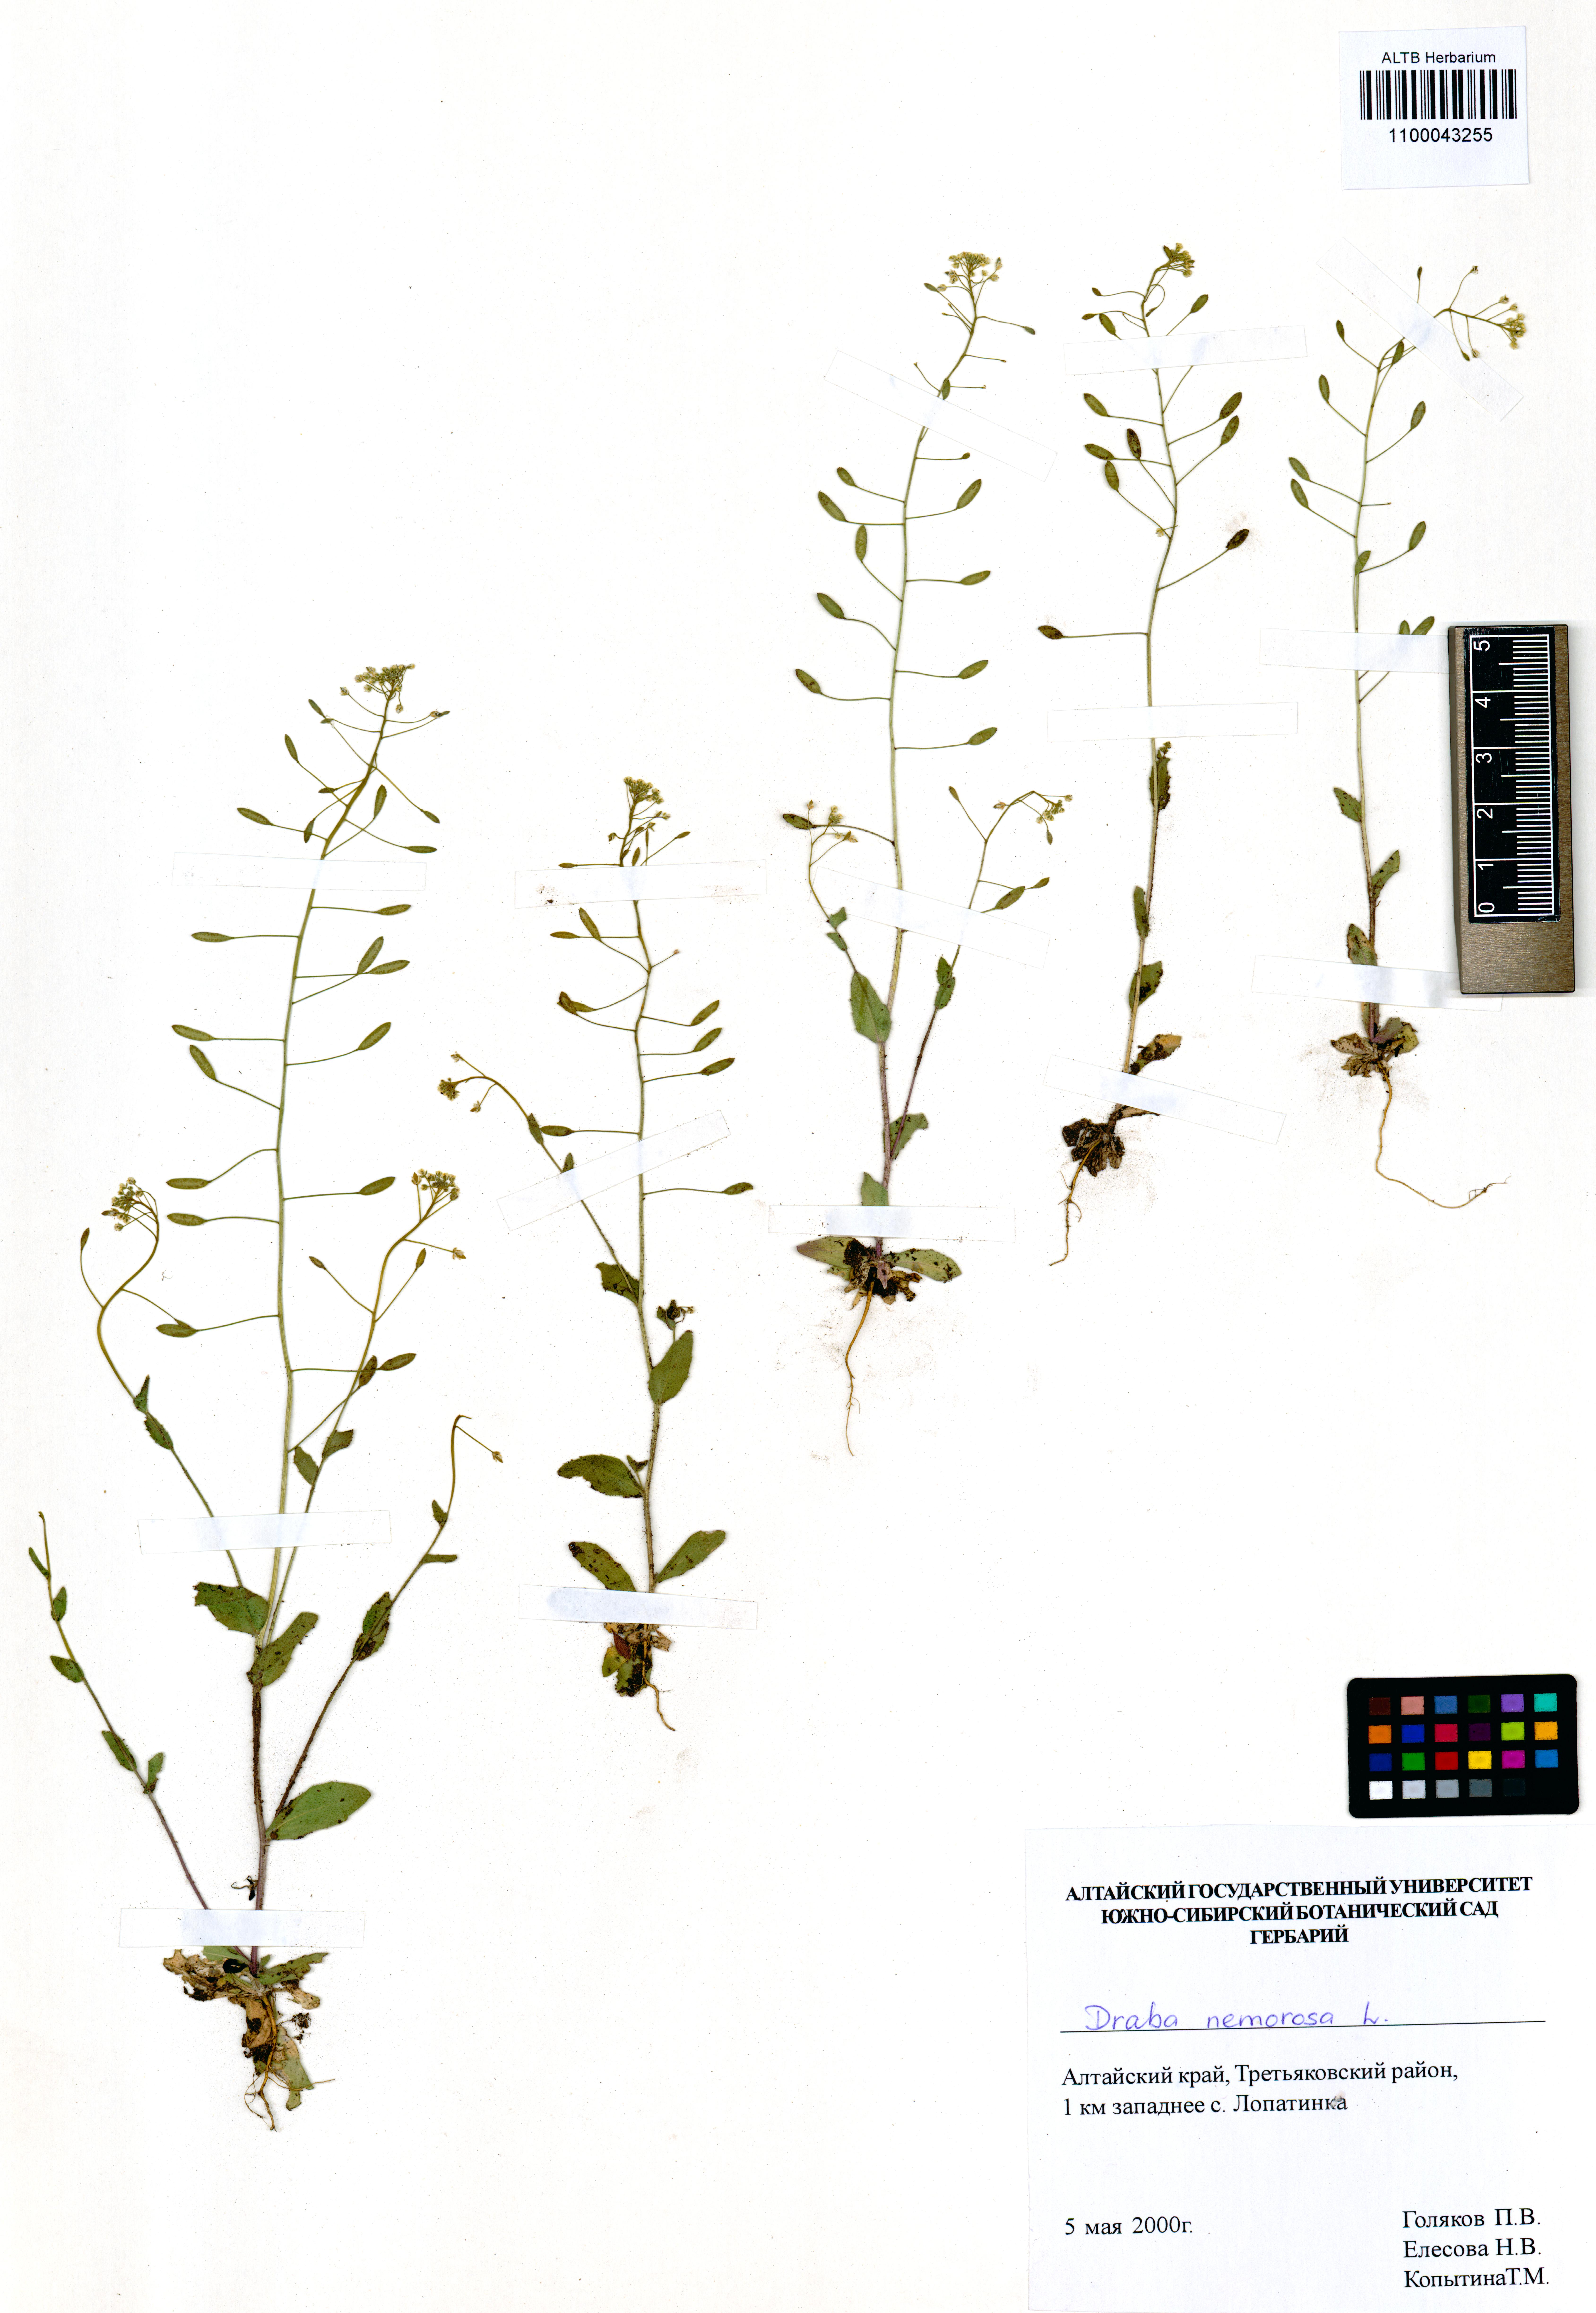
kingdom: Plantae
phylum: Tracheophyta
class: Magnoliopsida
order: Brassicales
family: Brassicaceae
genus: Draba
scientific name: Draba nemorosa
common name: Wood whitlow-grass
